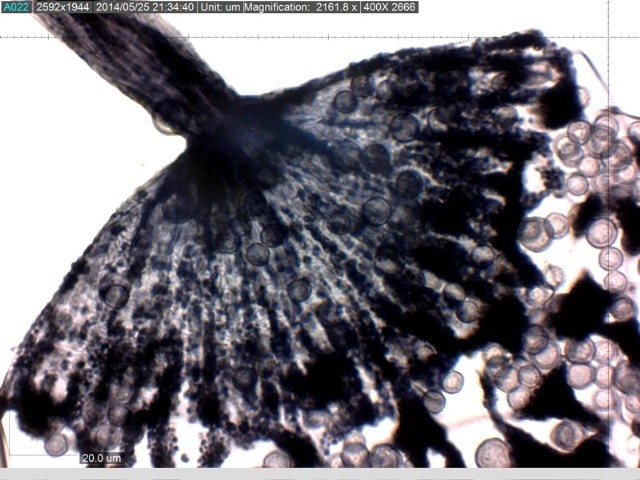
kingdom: Protozoa
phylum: Mycetozoa
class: Myxomycetes
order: Cribrariales
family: Cribrariaceae
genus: Cribraria
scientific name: Cribraria violacea
